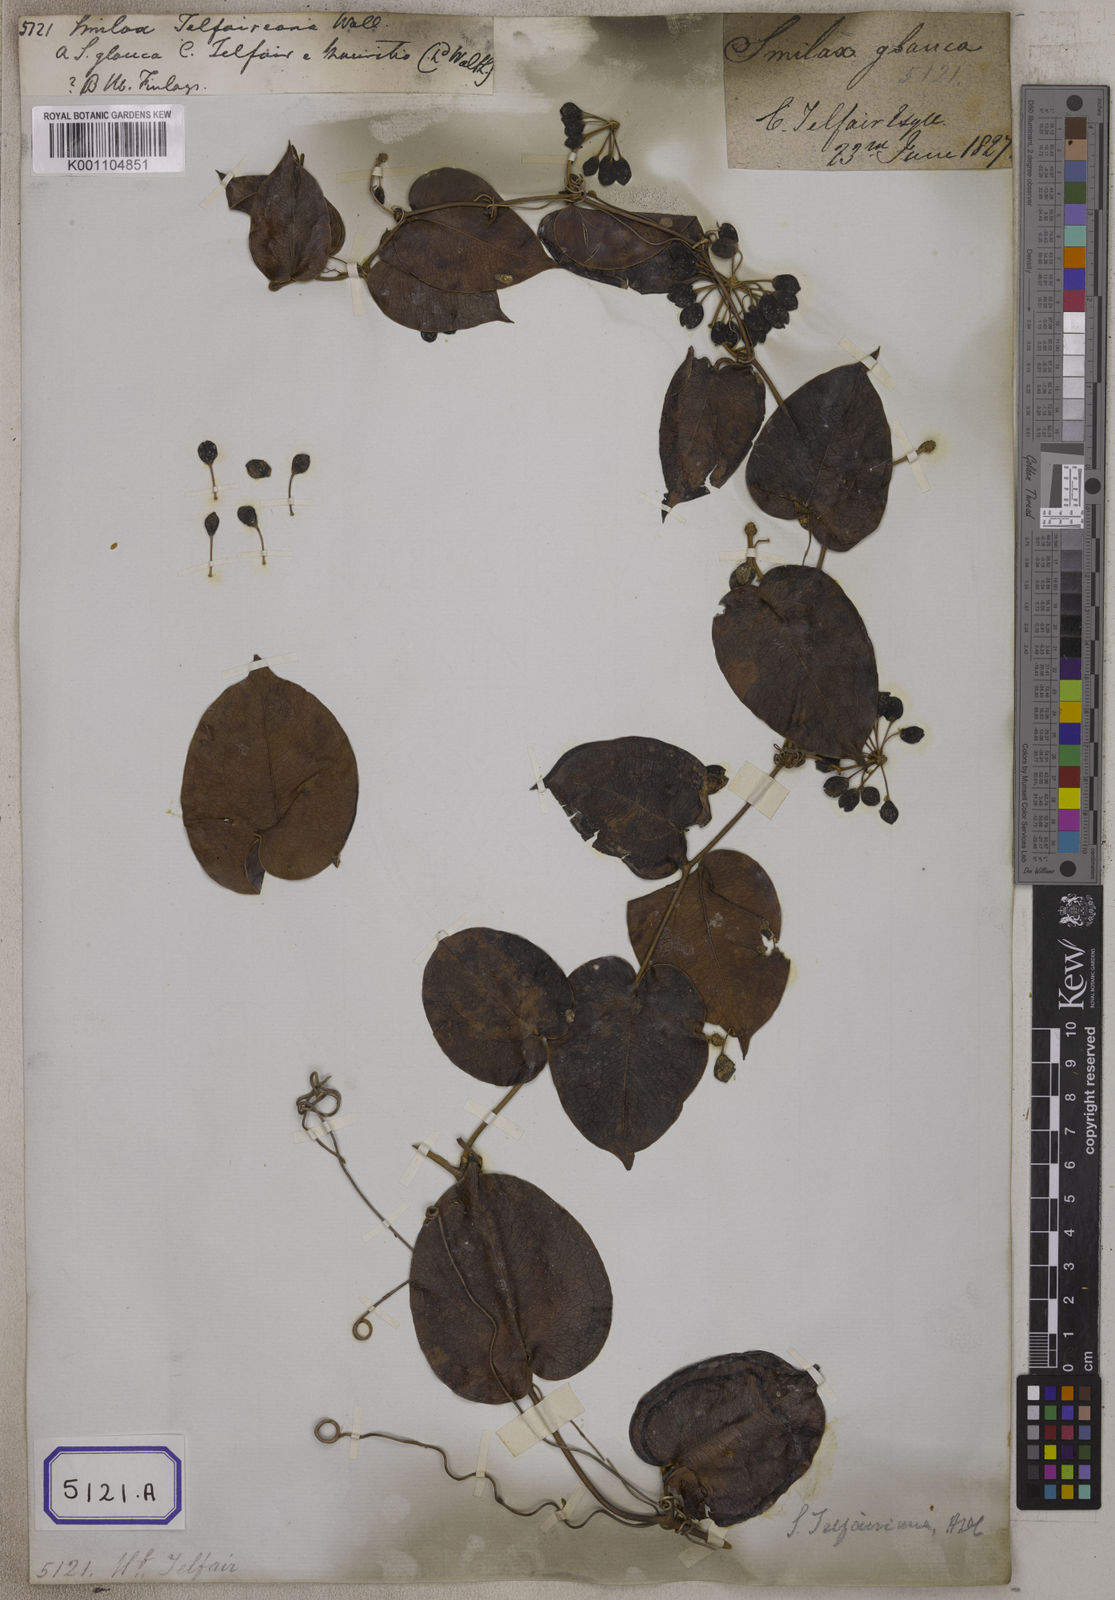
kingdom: Plantae
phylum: Tracheophyta
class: Liliopsida
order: Liliales
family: Smilacaceae
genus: Smilax
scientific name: Smilax
